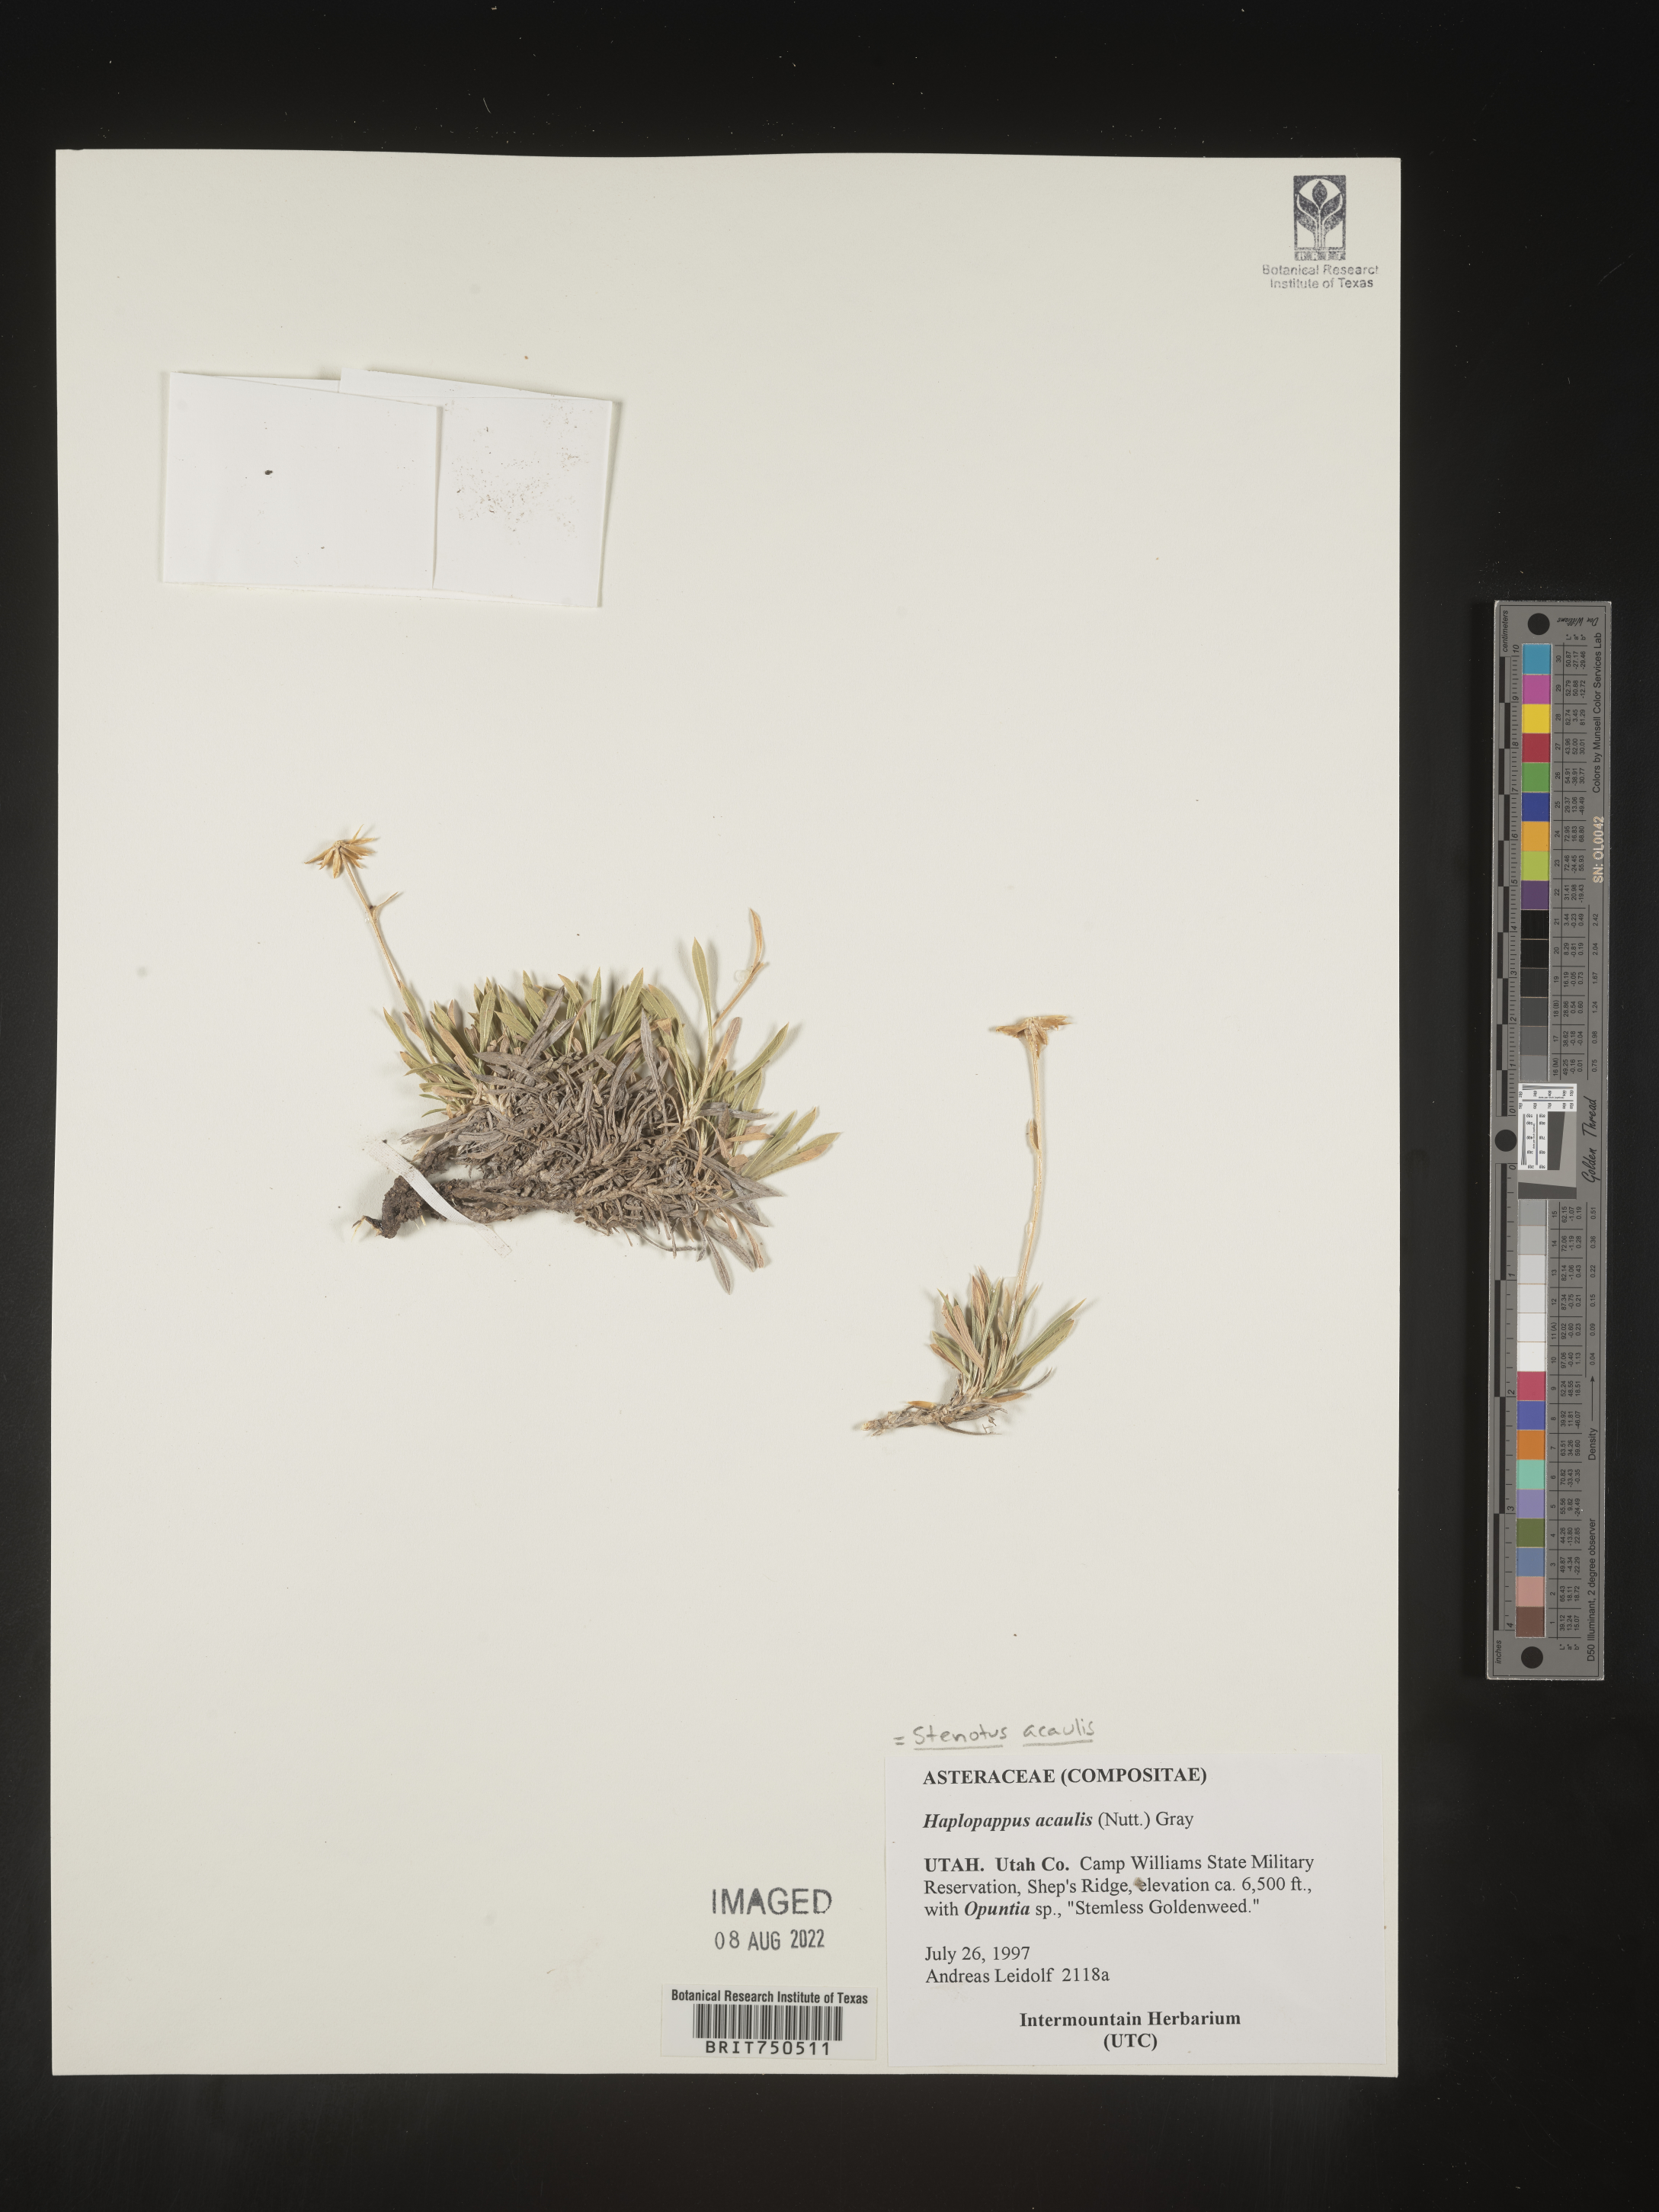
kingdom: Plantae
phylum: Tracheophyta
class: Magnoliopsida
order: Asterales
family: Asteraceae
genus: Stenotus
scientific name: Stenotus acaulis
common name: Stemless goldenweed
